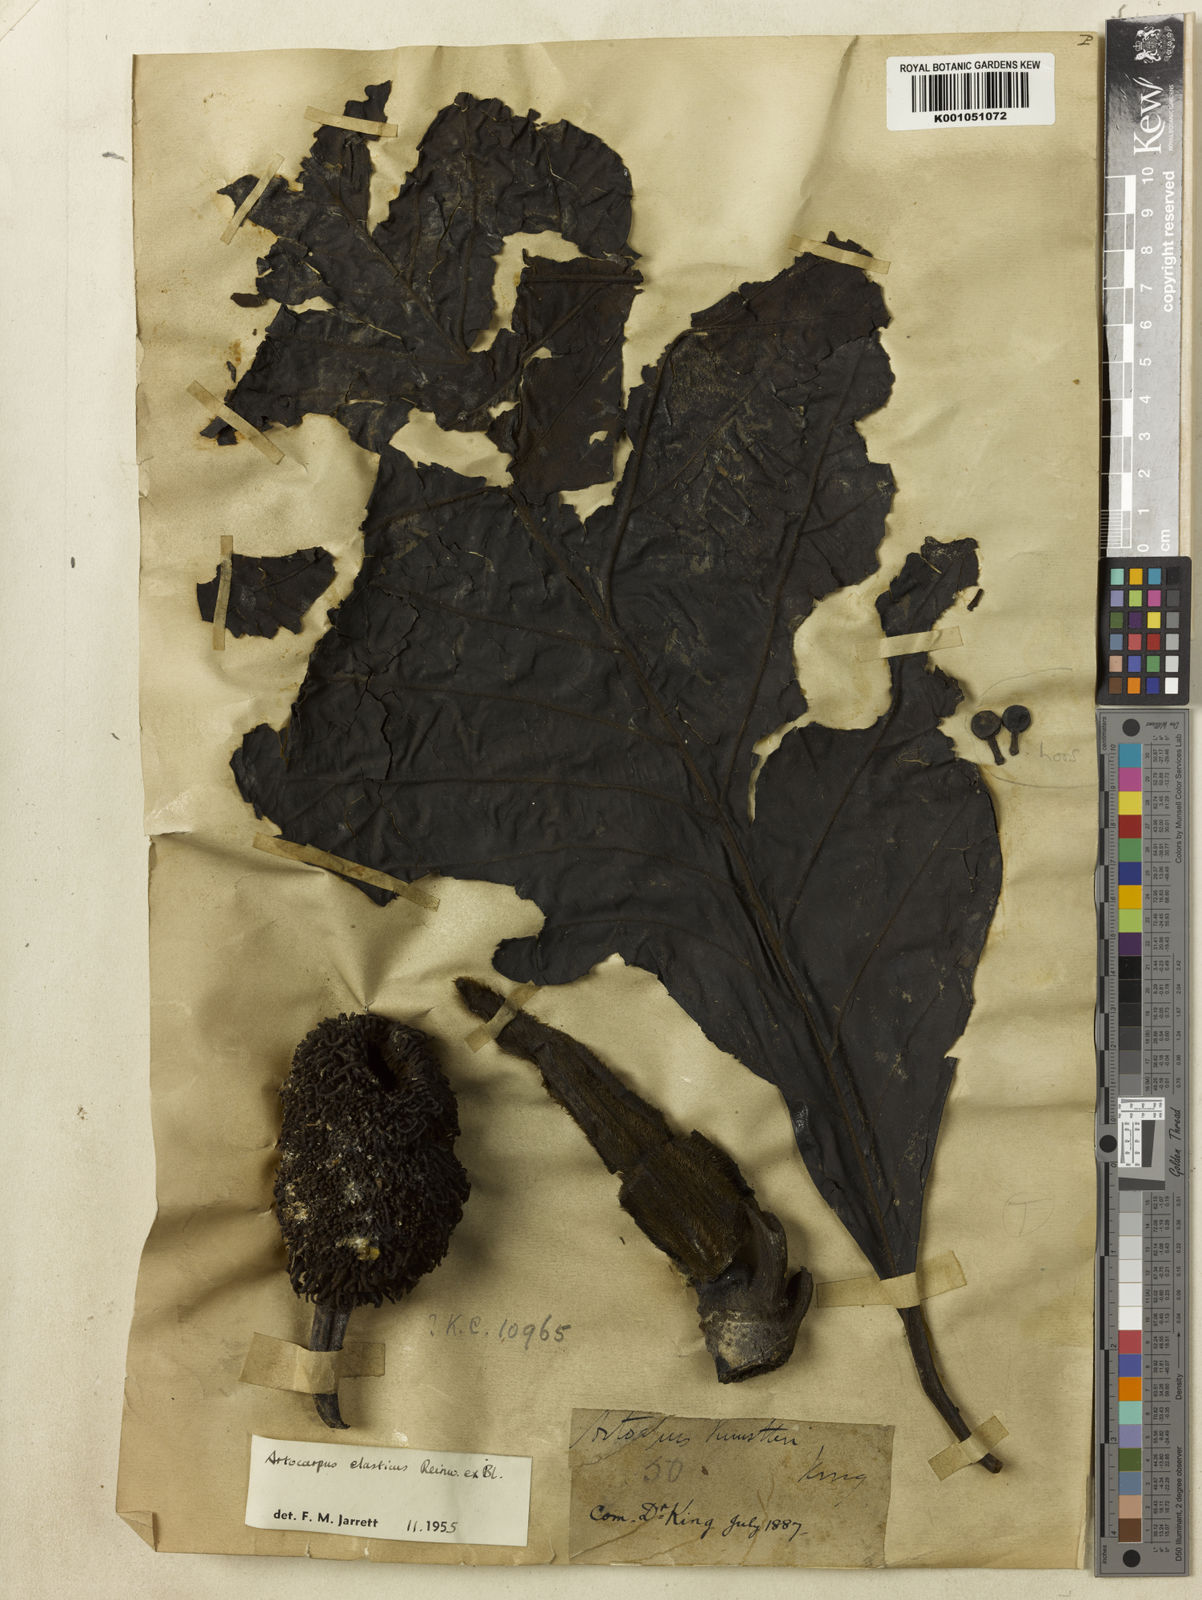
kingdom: Plantae
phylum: Tracheophyta
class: Magnoliopsida
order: Rosales
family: Moraceae
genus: Artocarpus
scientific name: Artocarpus
